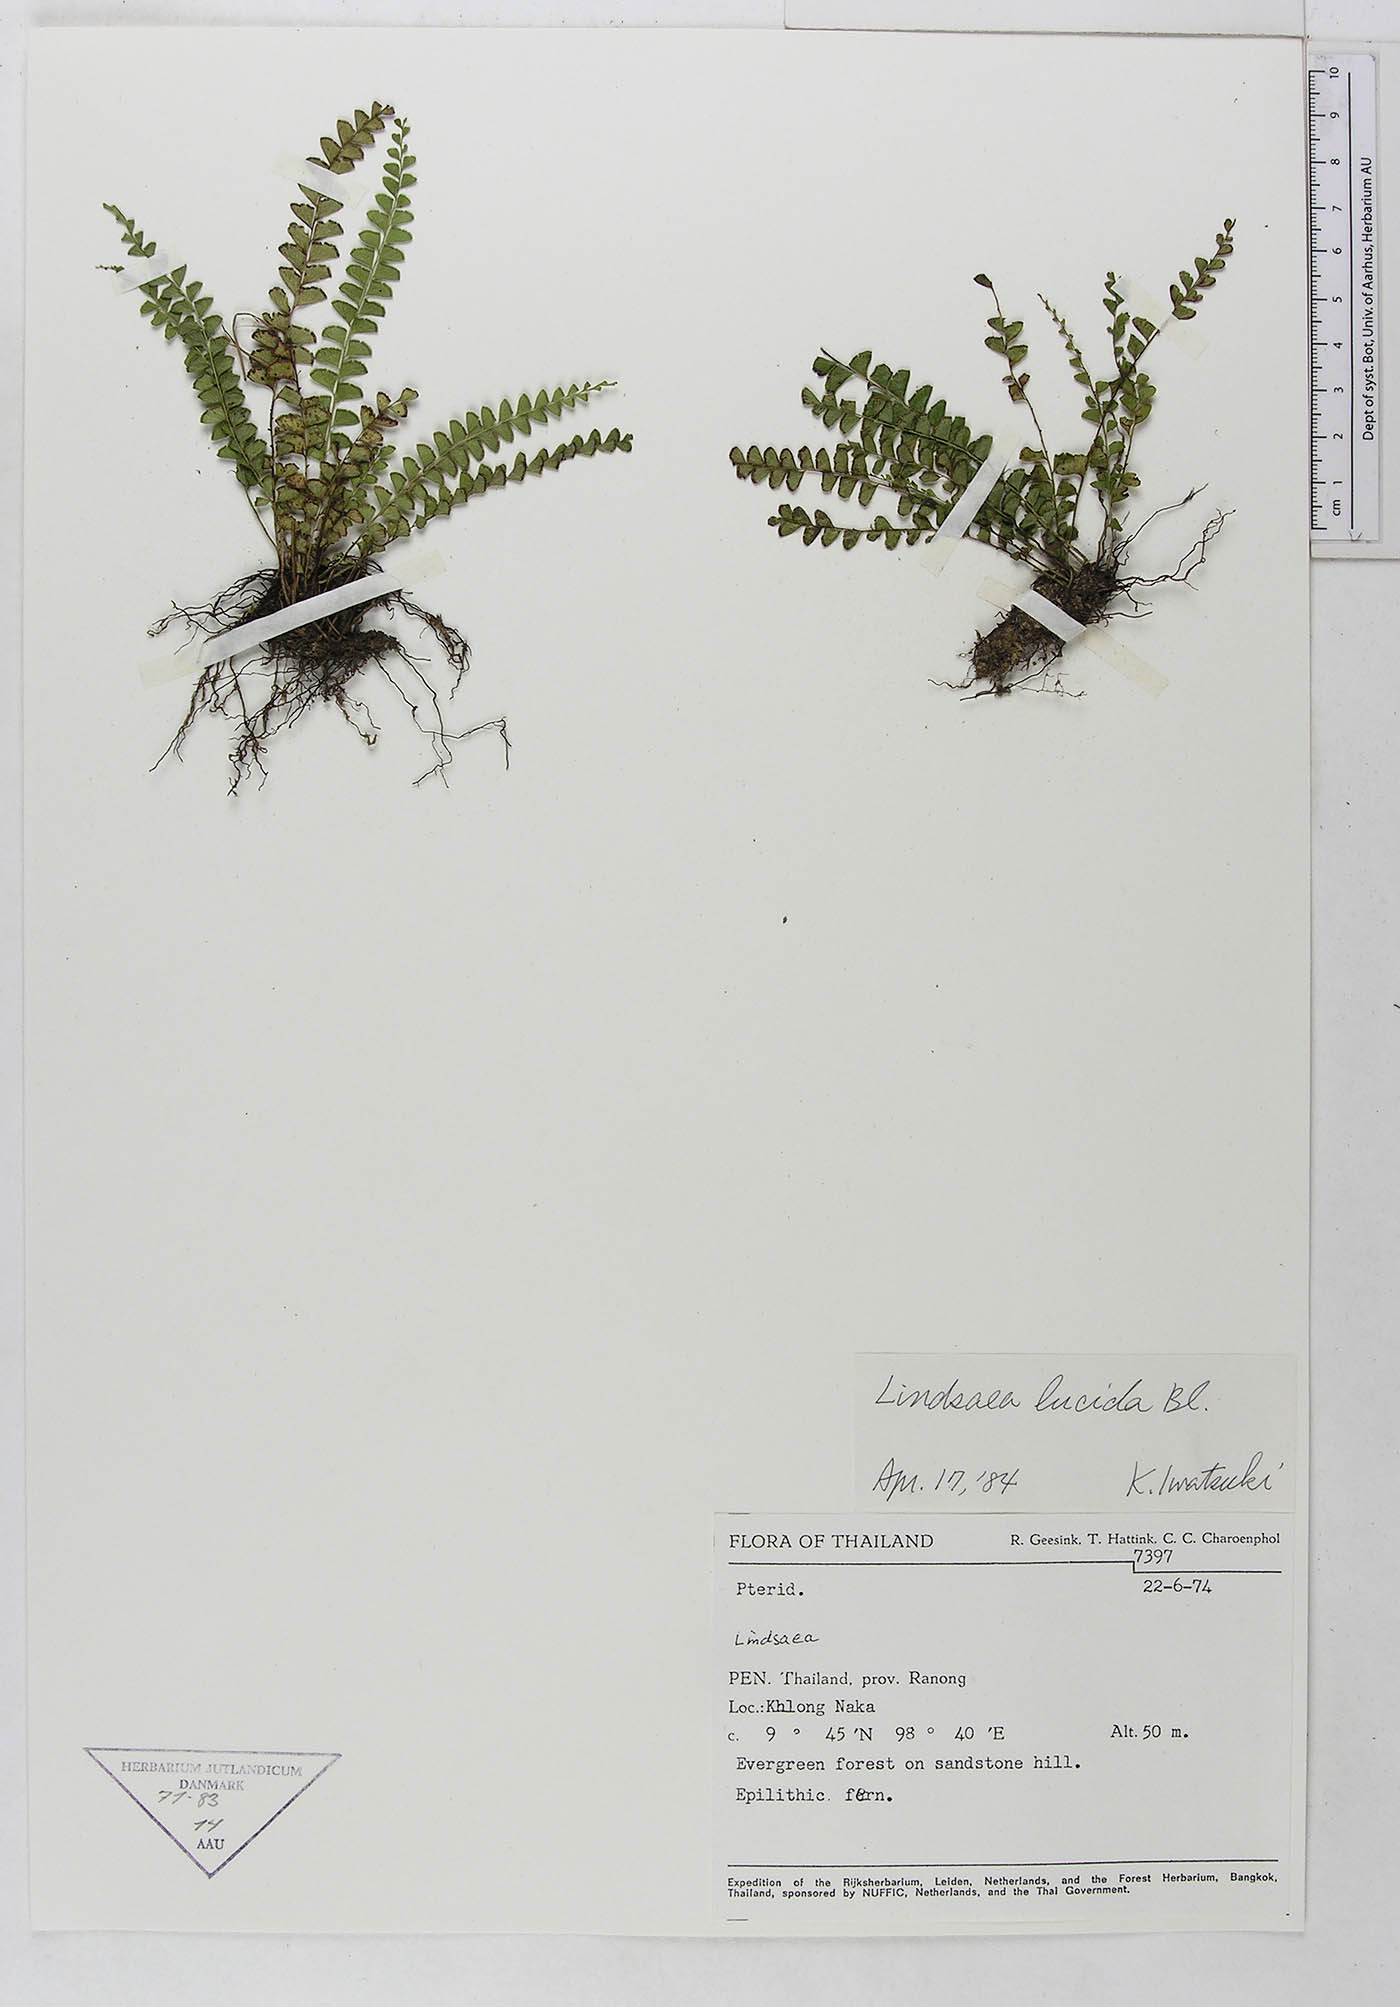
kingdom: Plantae
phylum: Tracheophyta
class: Polypodiopsida
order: Polypodiales
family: Lindsaeaceae
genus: Lindsaea
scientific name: Lindsaea lucida
